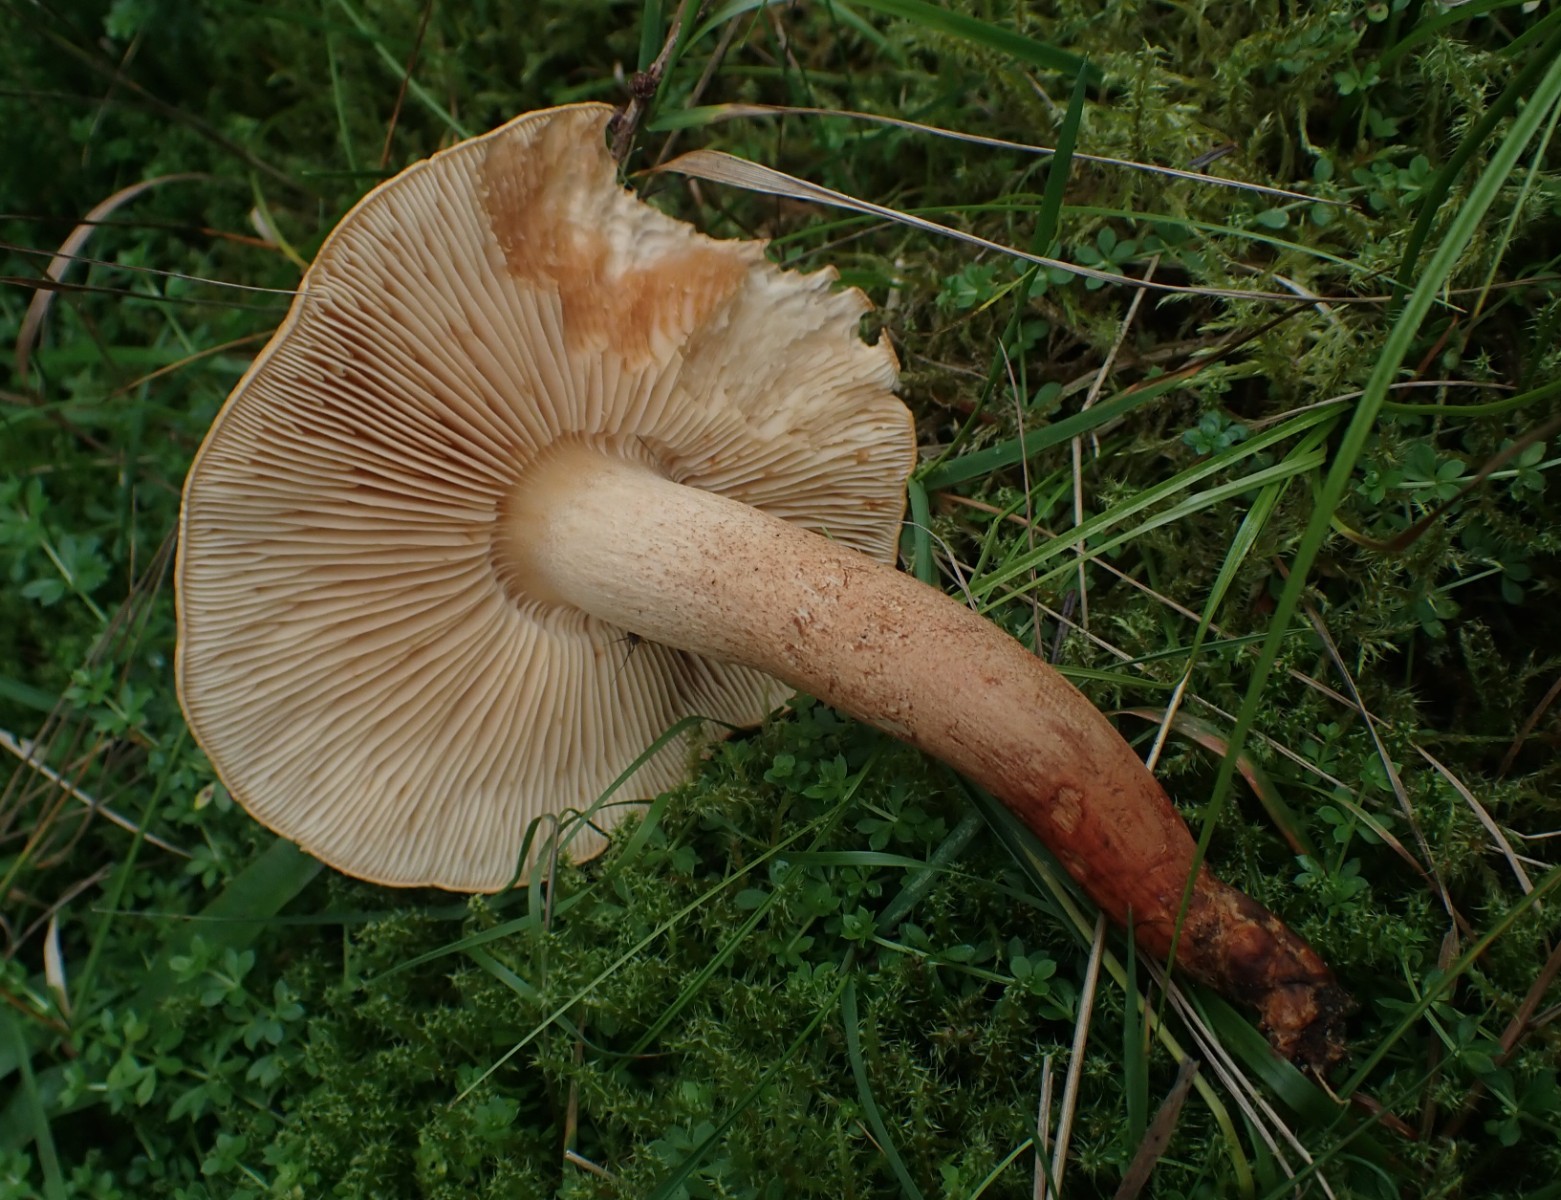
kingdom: Fungi
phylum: Basidiomycota
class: Agaricomycetes
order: Agaricales
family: Tricholomataceae
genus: Tricholoma
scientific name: Tricholoma psammopus
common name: grynstokket ridderhat
